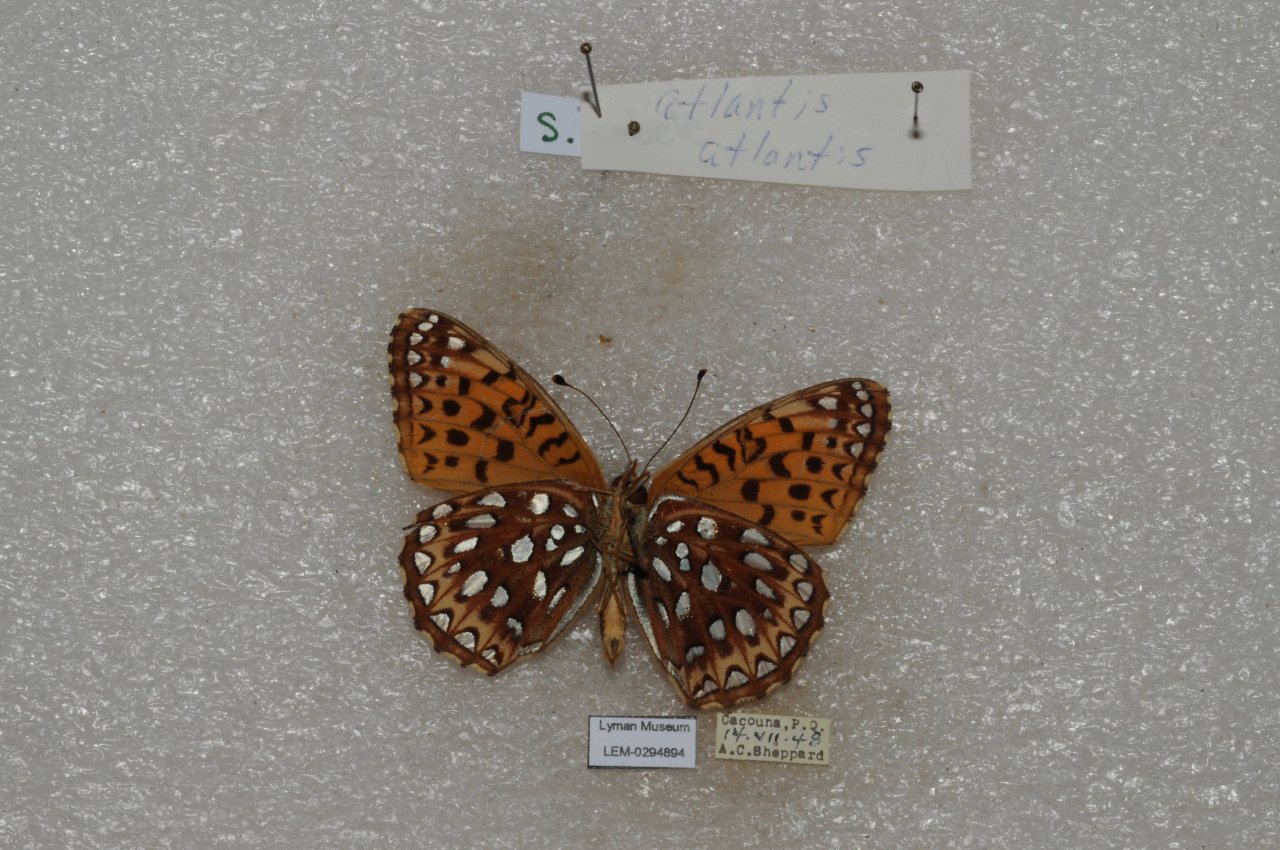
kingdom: Animalia
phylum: Arthropoda
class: Insecta
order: Lepidoptera
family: Nymphalidae
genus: Speyeria
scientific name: Speyeria atlantis
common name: Atlantis Fritillary
